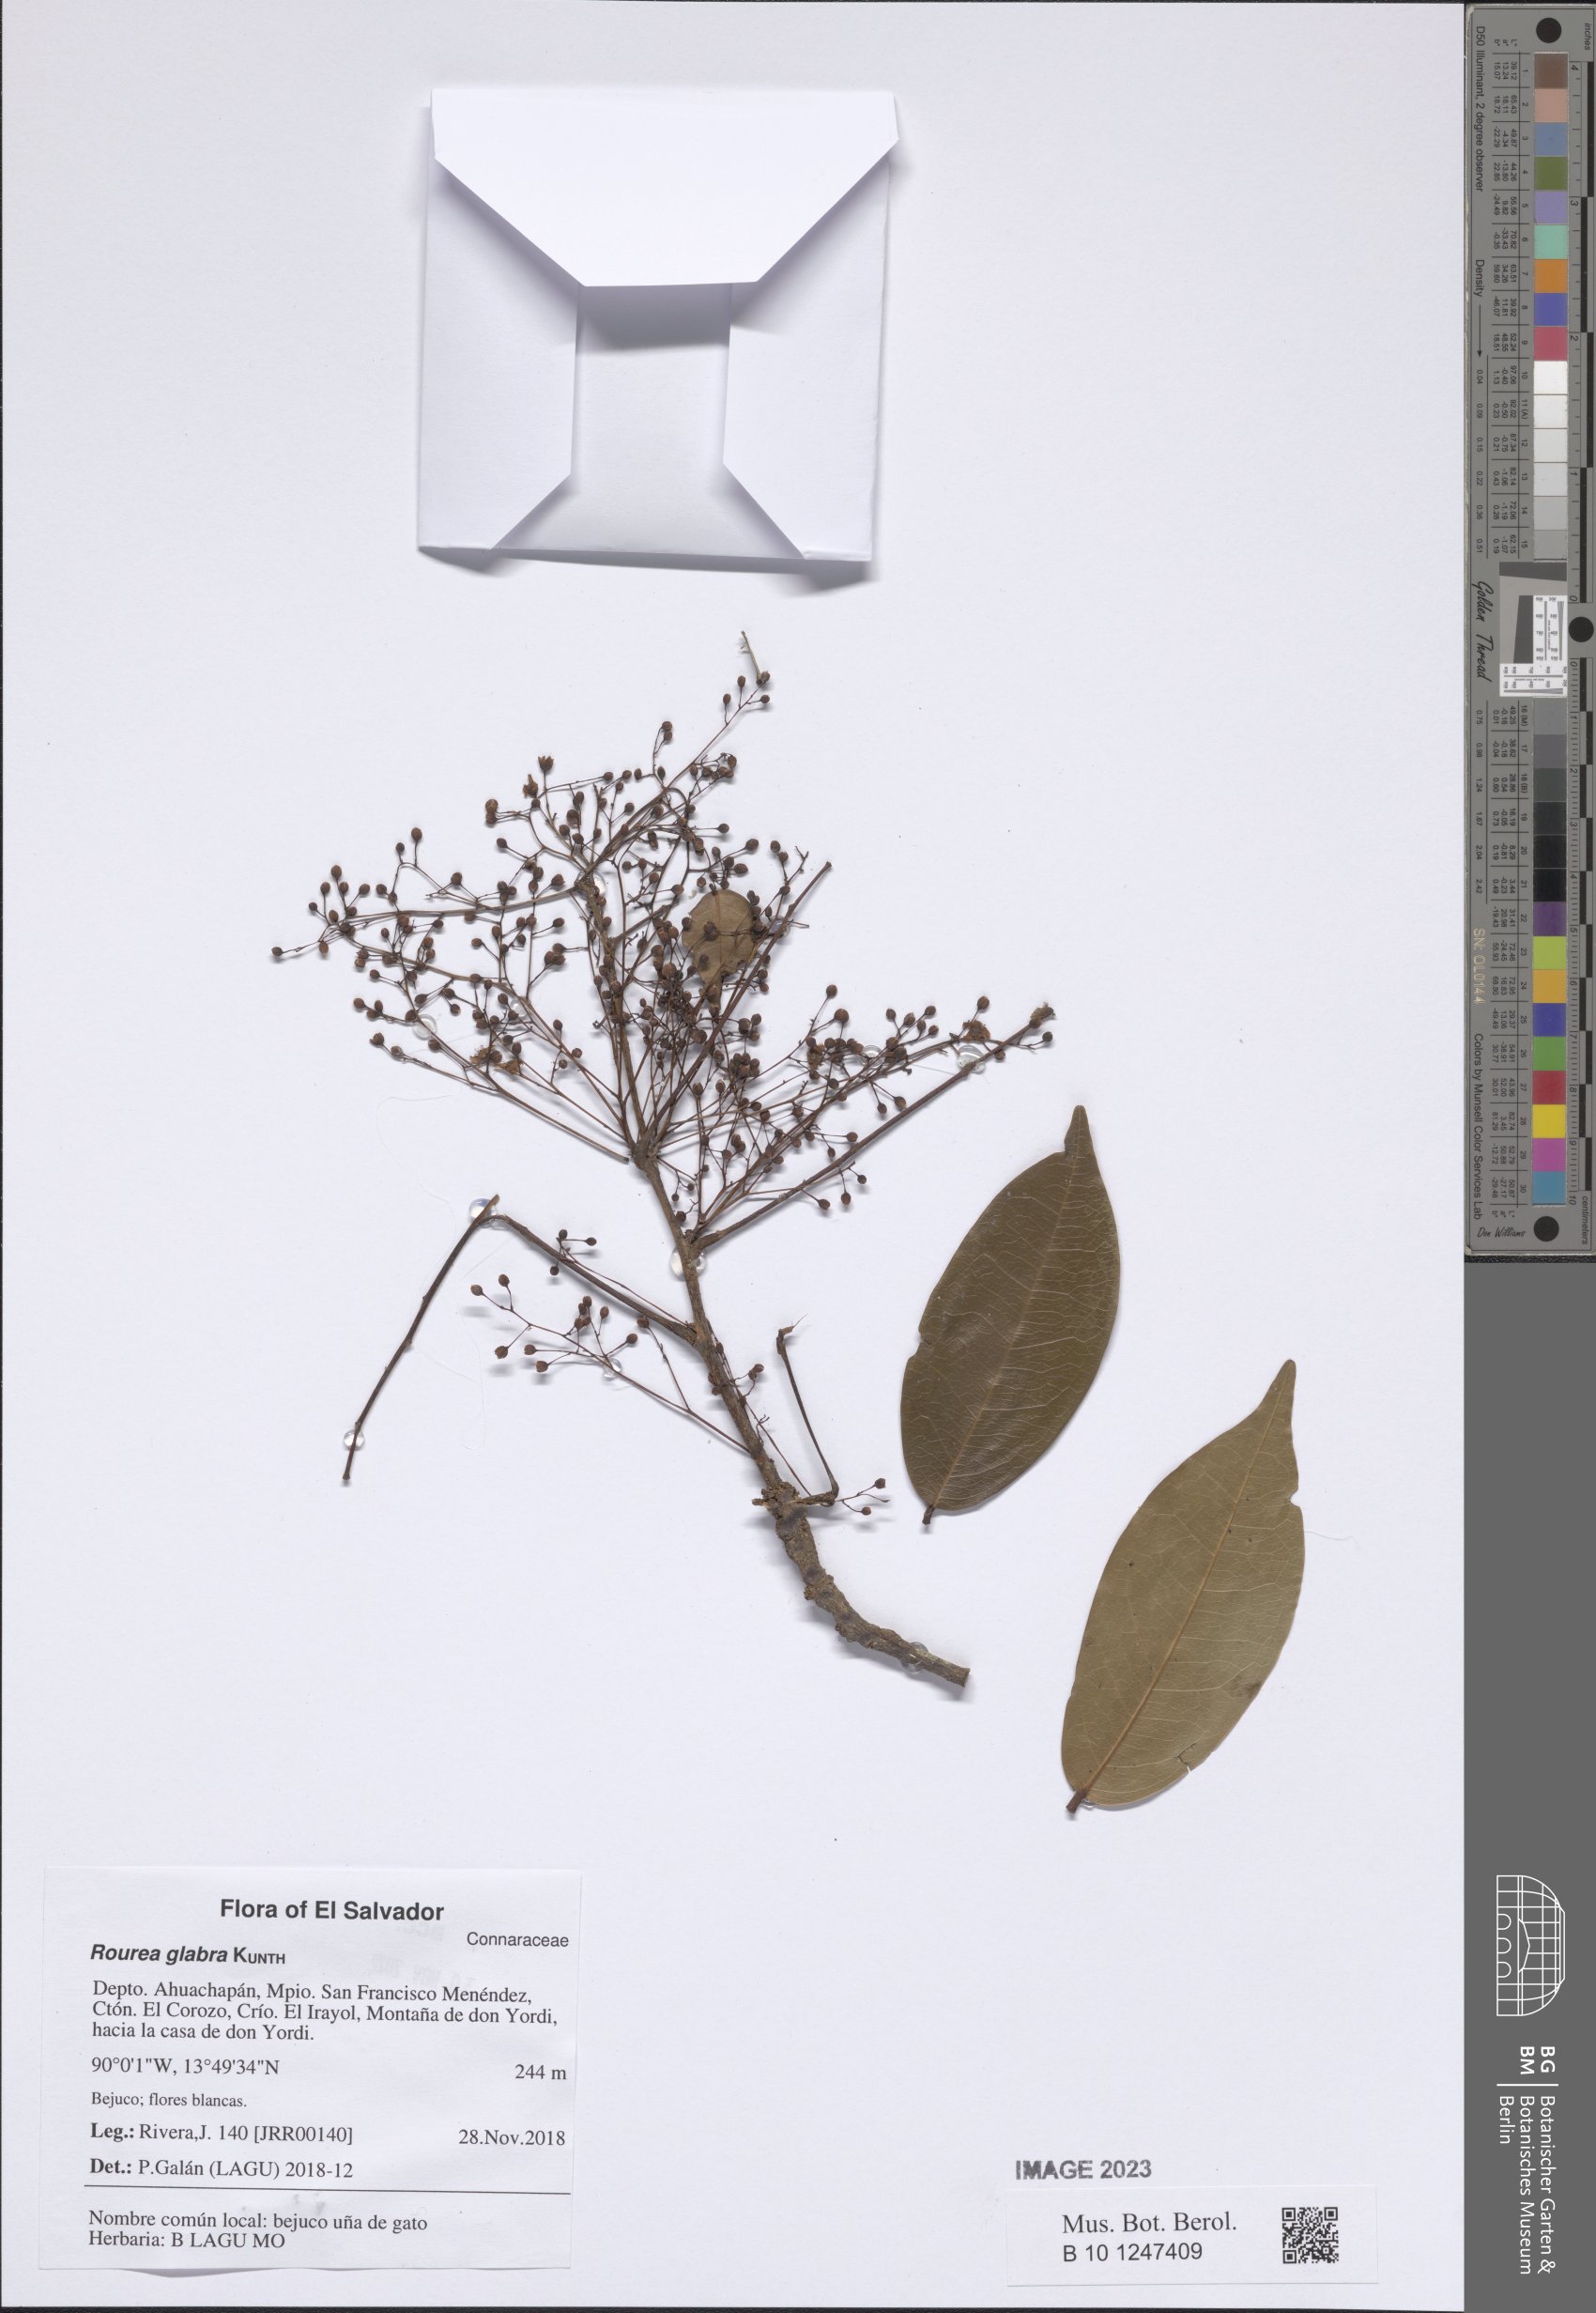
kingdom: Plantae
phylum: Tracheophyta
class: Magnoliopsida
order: Oxalidales
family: Connaraceae
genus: Rourea
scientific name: Rourea glabra
